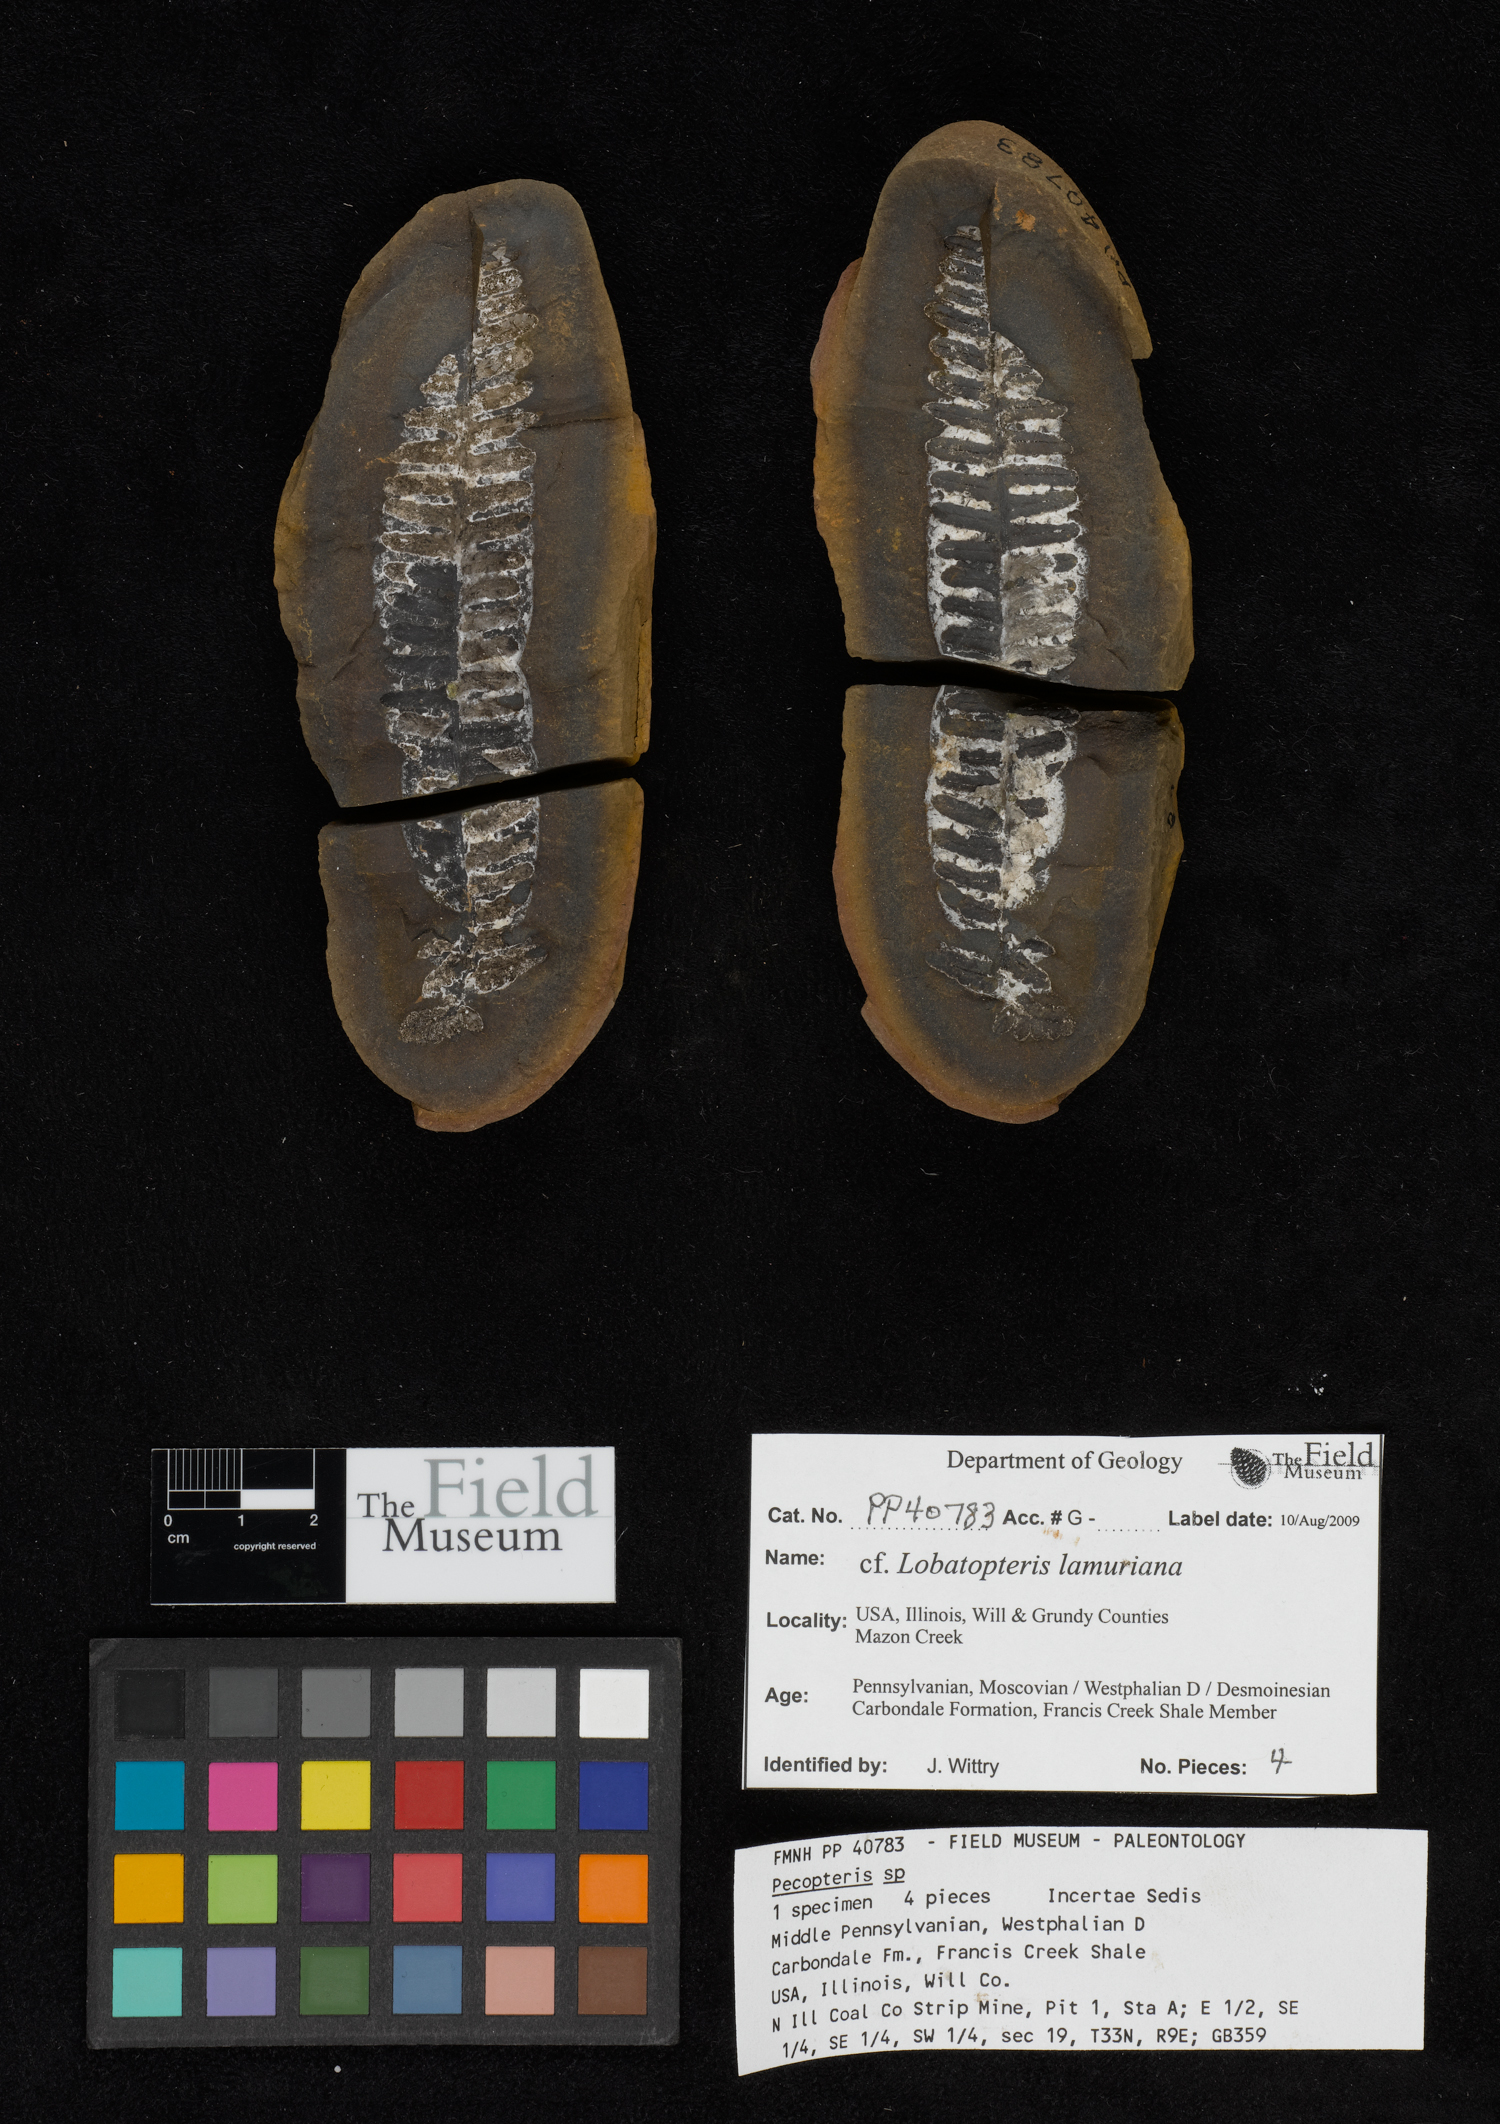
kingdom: Plantae
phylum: Tracheophyta
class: Polypodiopsida
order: Marattiales
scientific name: Marattiales
